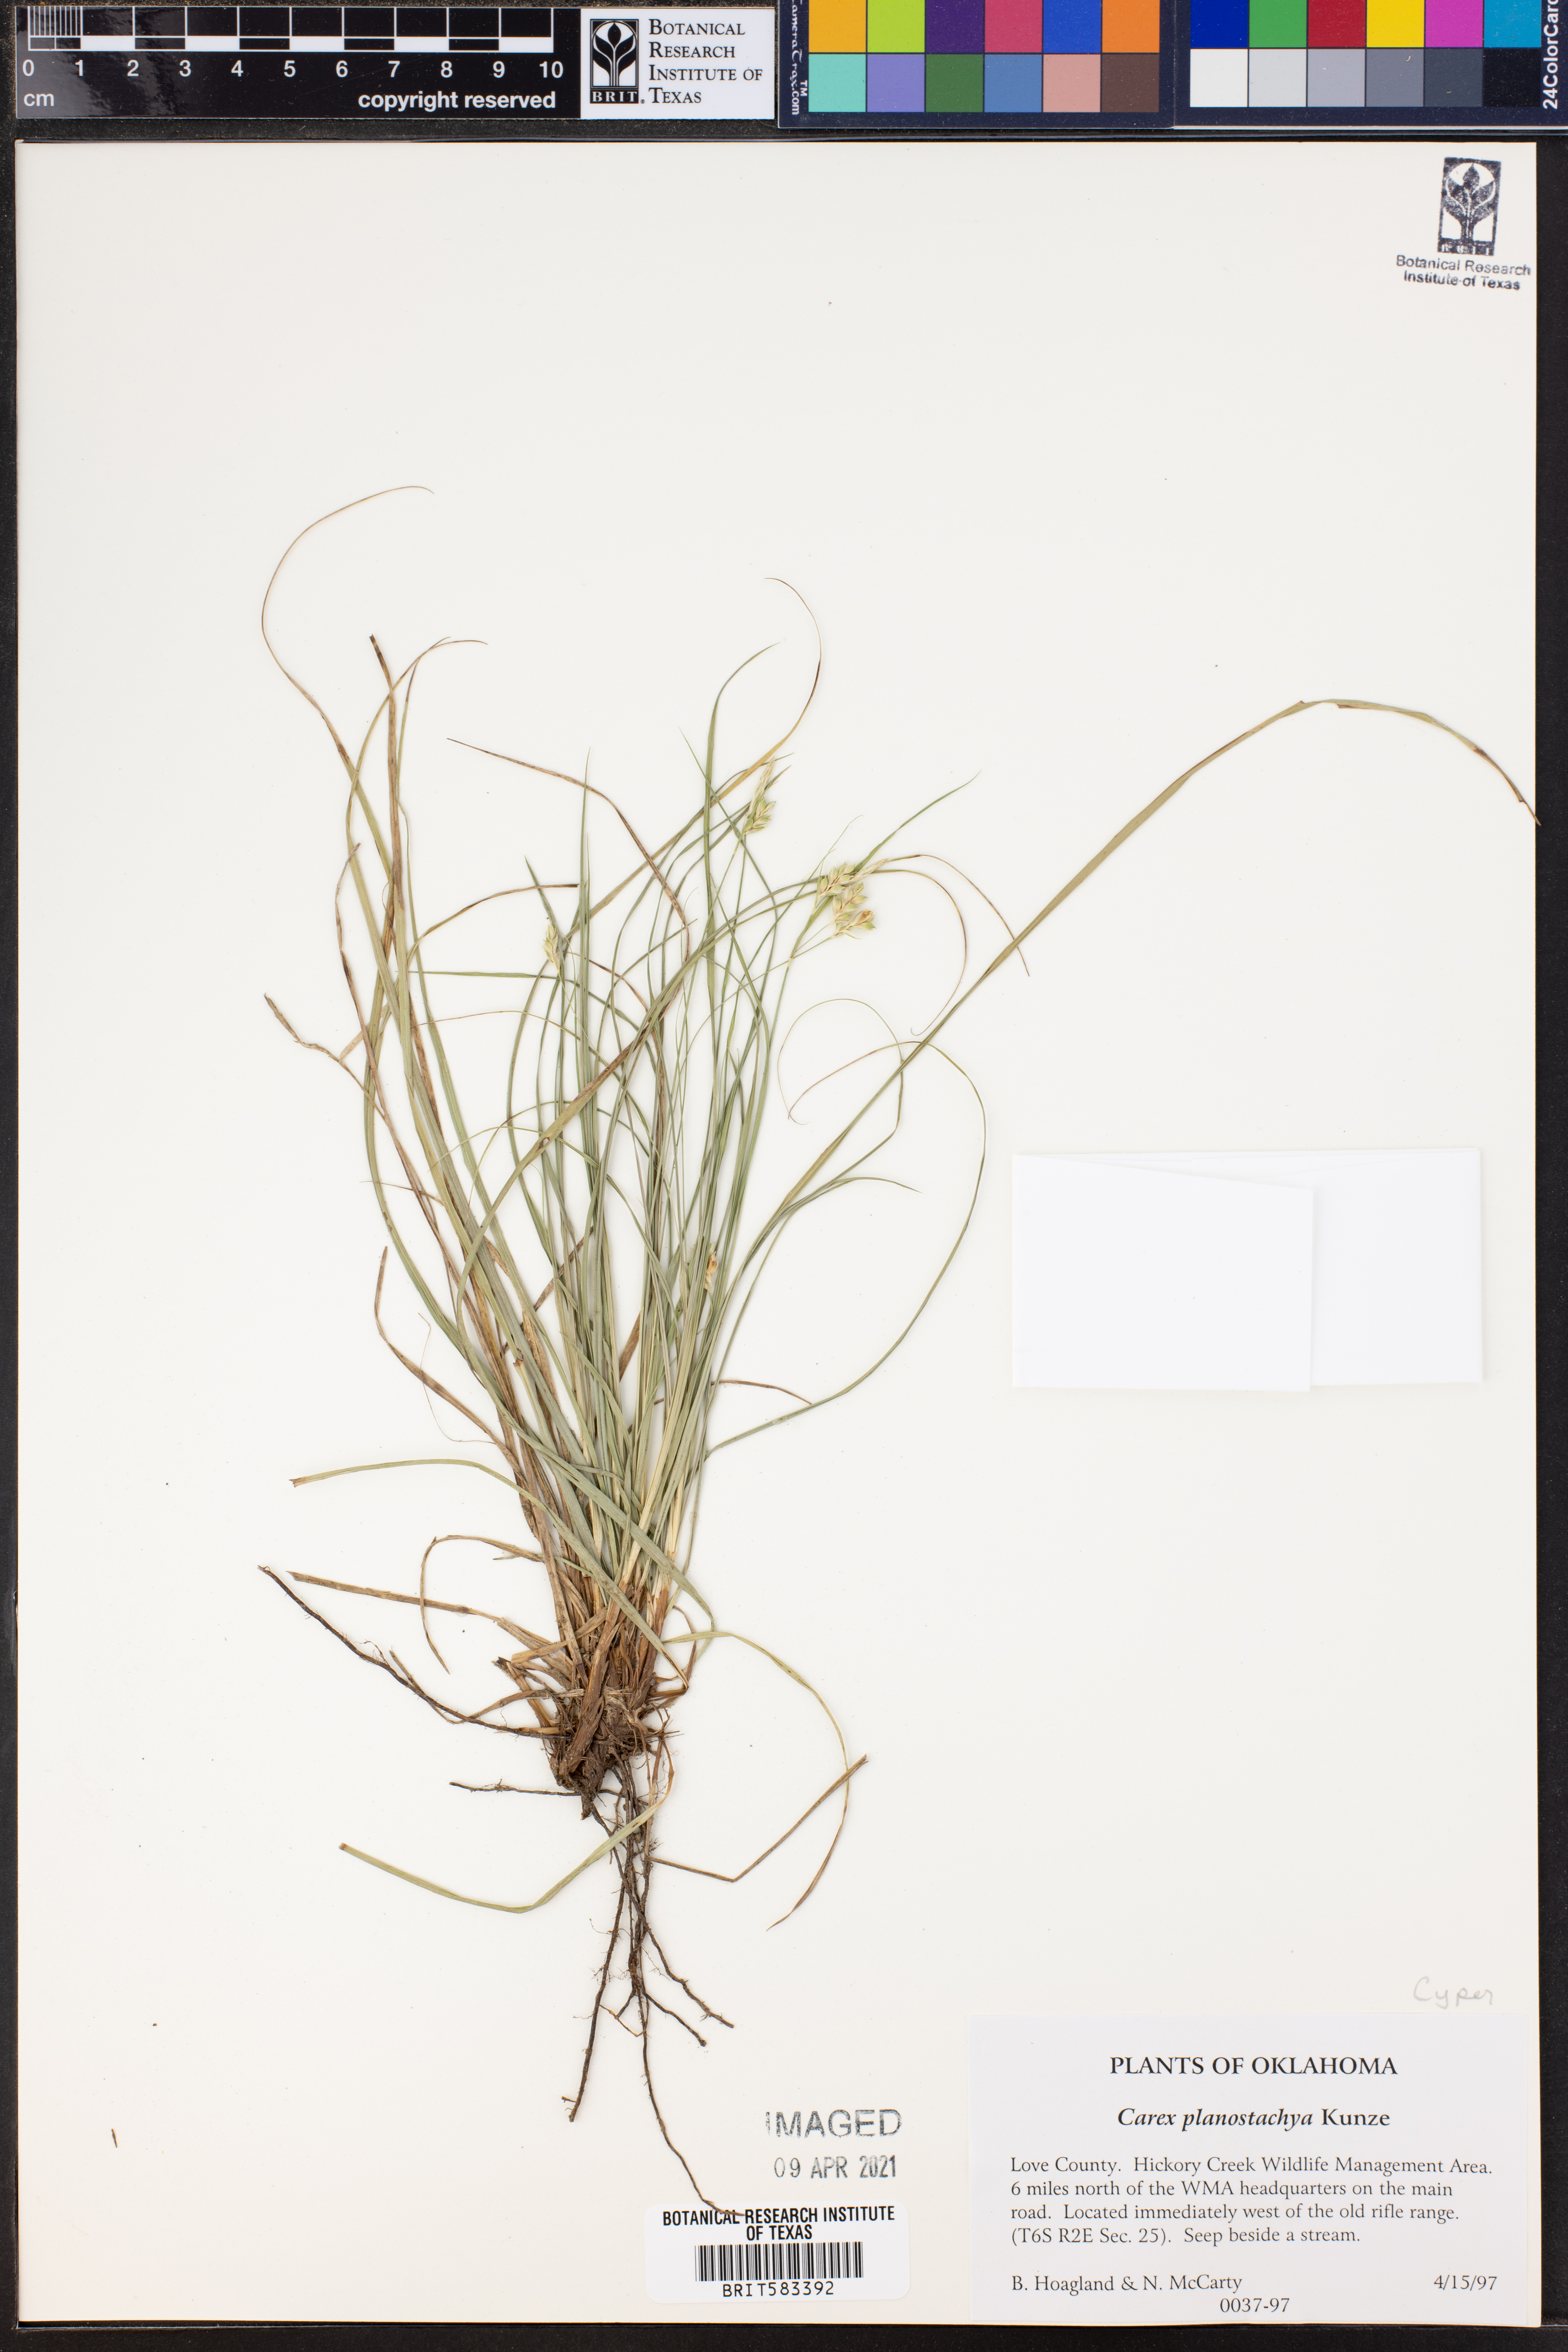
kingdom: Plantae
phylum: Tracheophyta
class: Liliopsida
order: Poales
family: Cyperaceae
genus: Carex
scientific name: Carex planostachys
